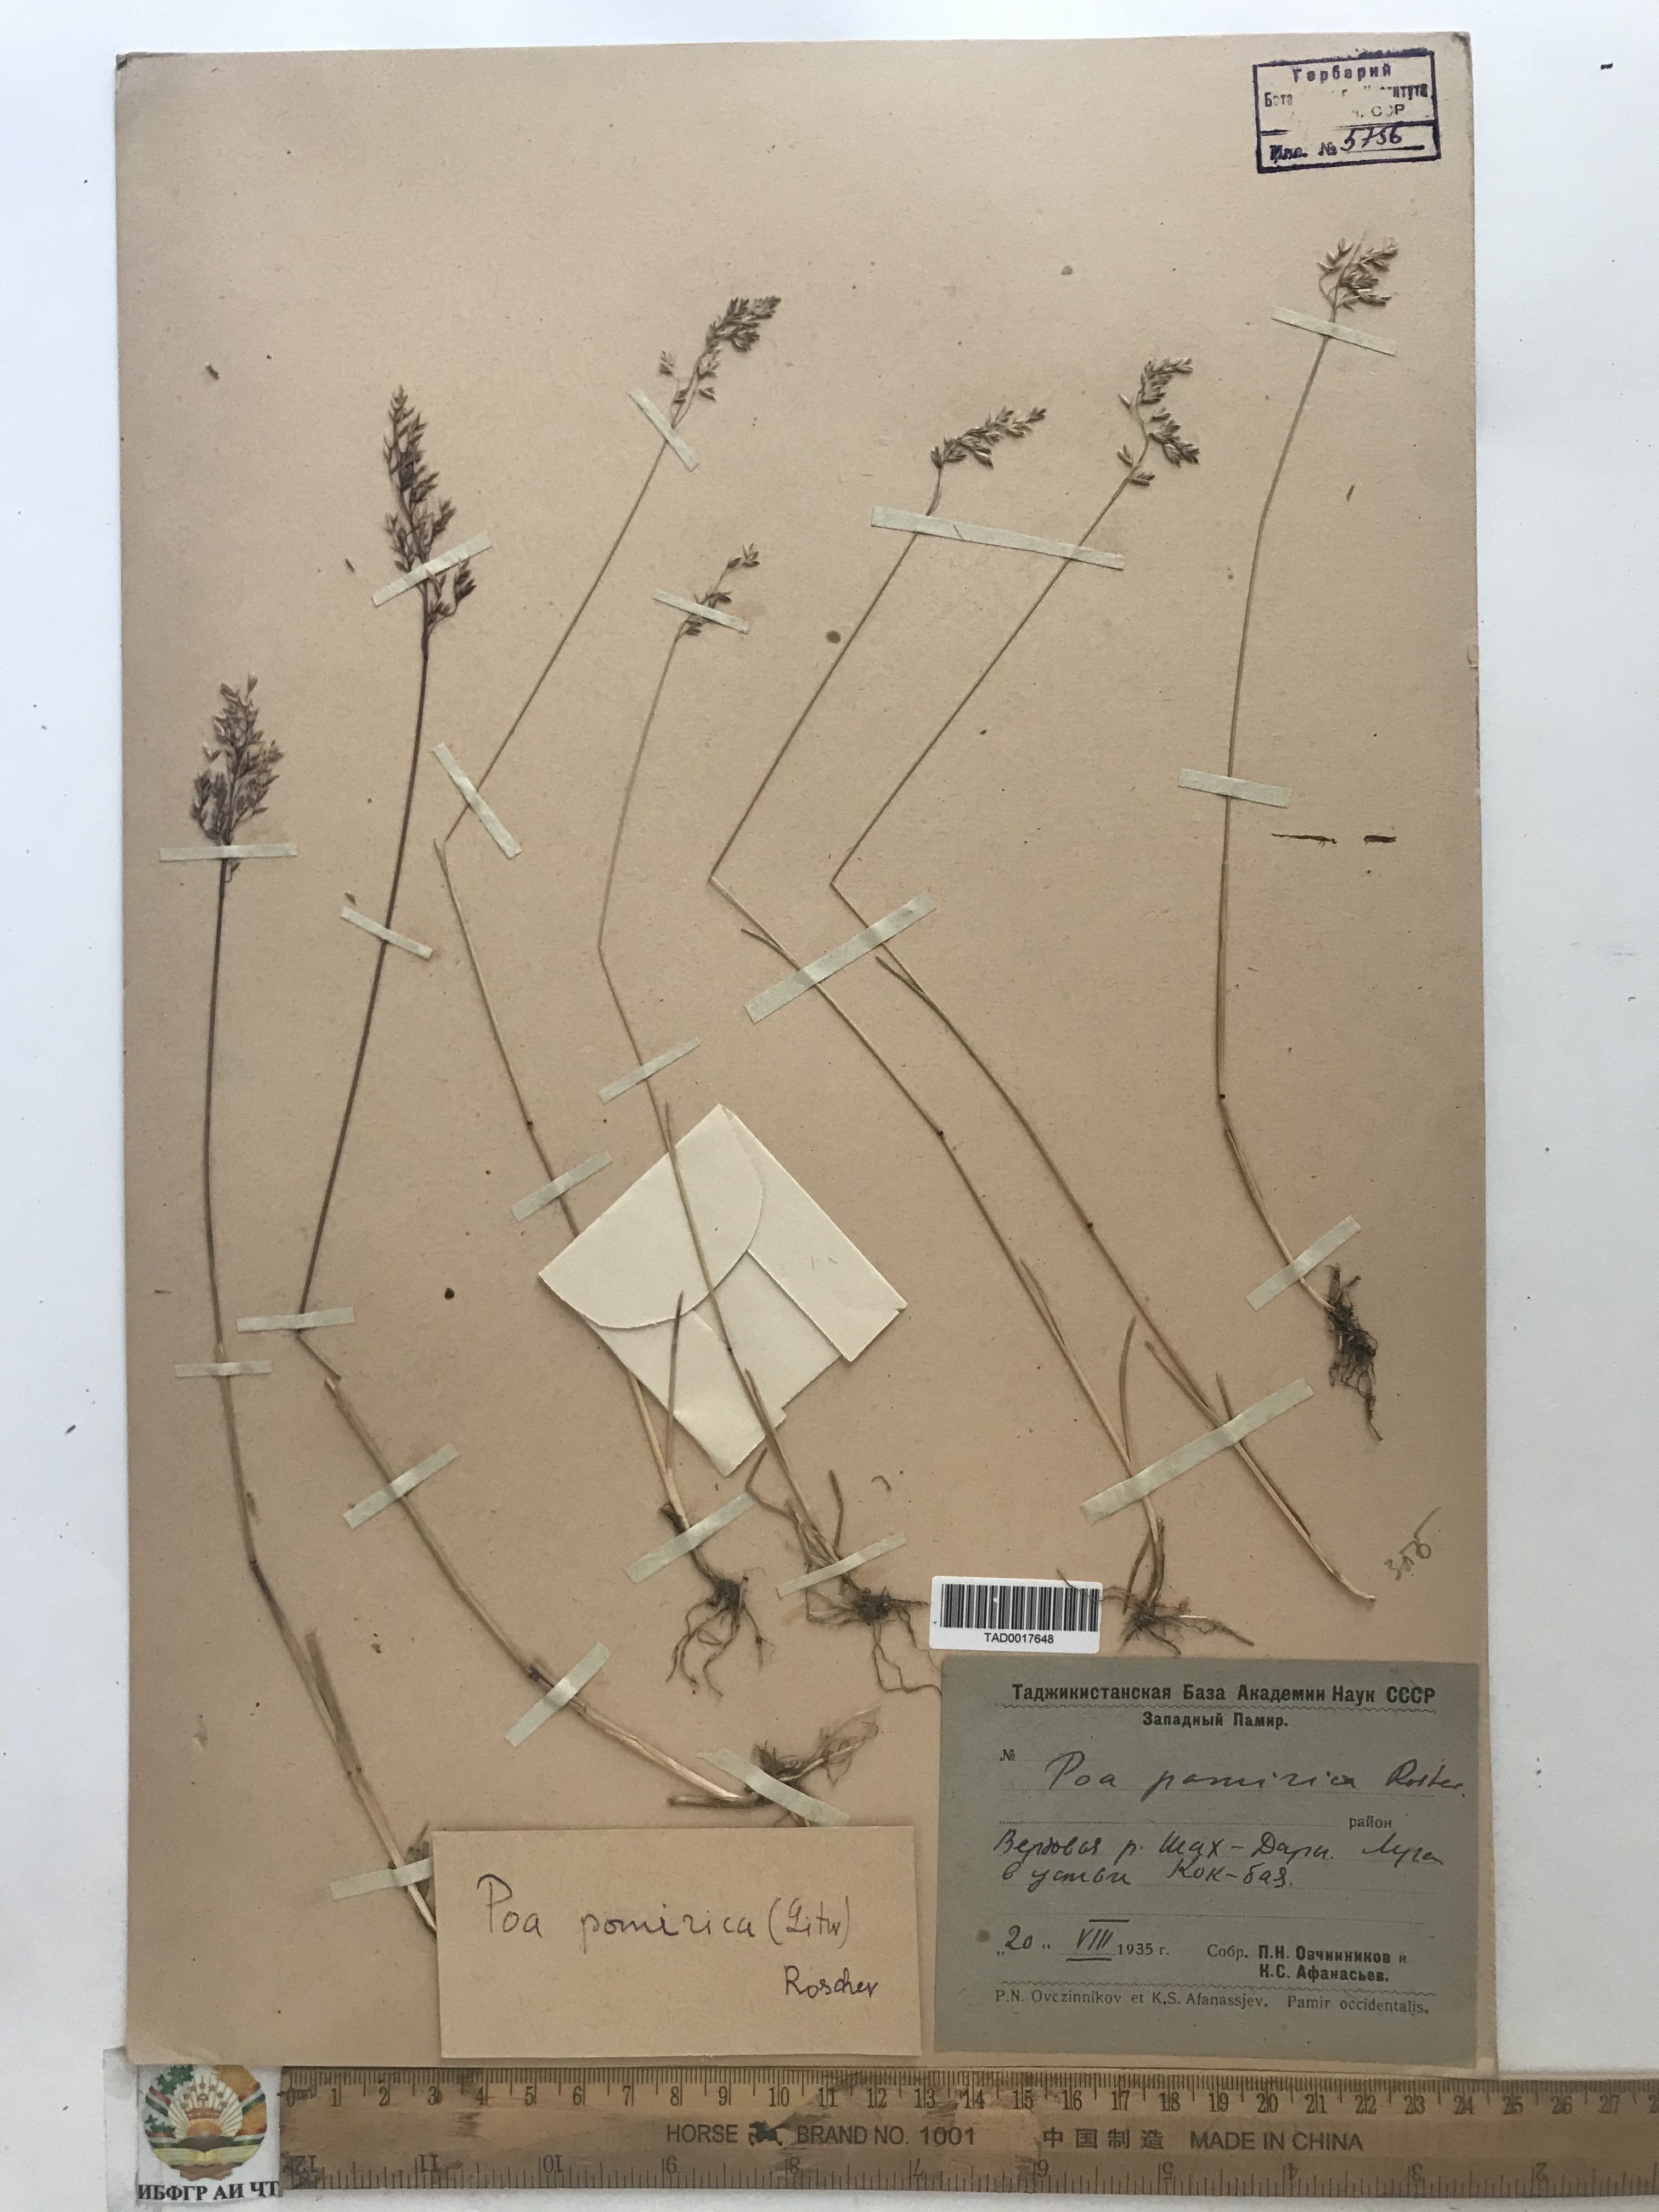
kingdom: Plantae
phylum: Tracheophyta
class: Liliopsida
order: Poales
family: Poaceae
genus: Poa
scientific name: Poa tianschanica
